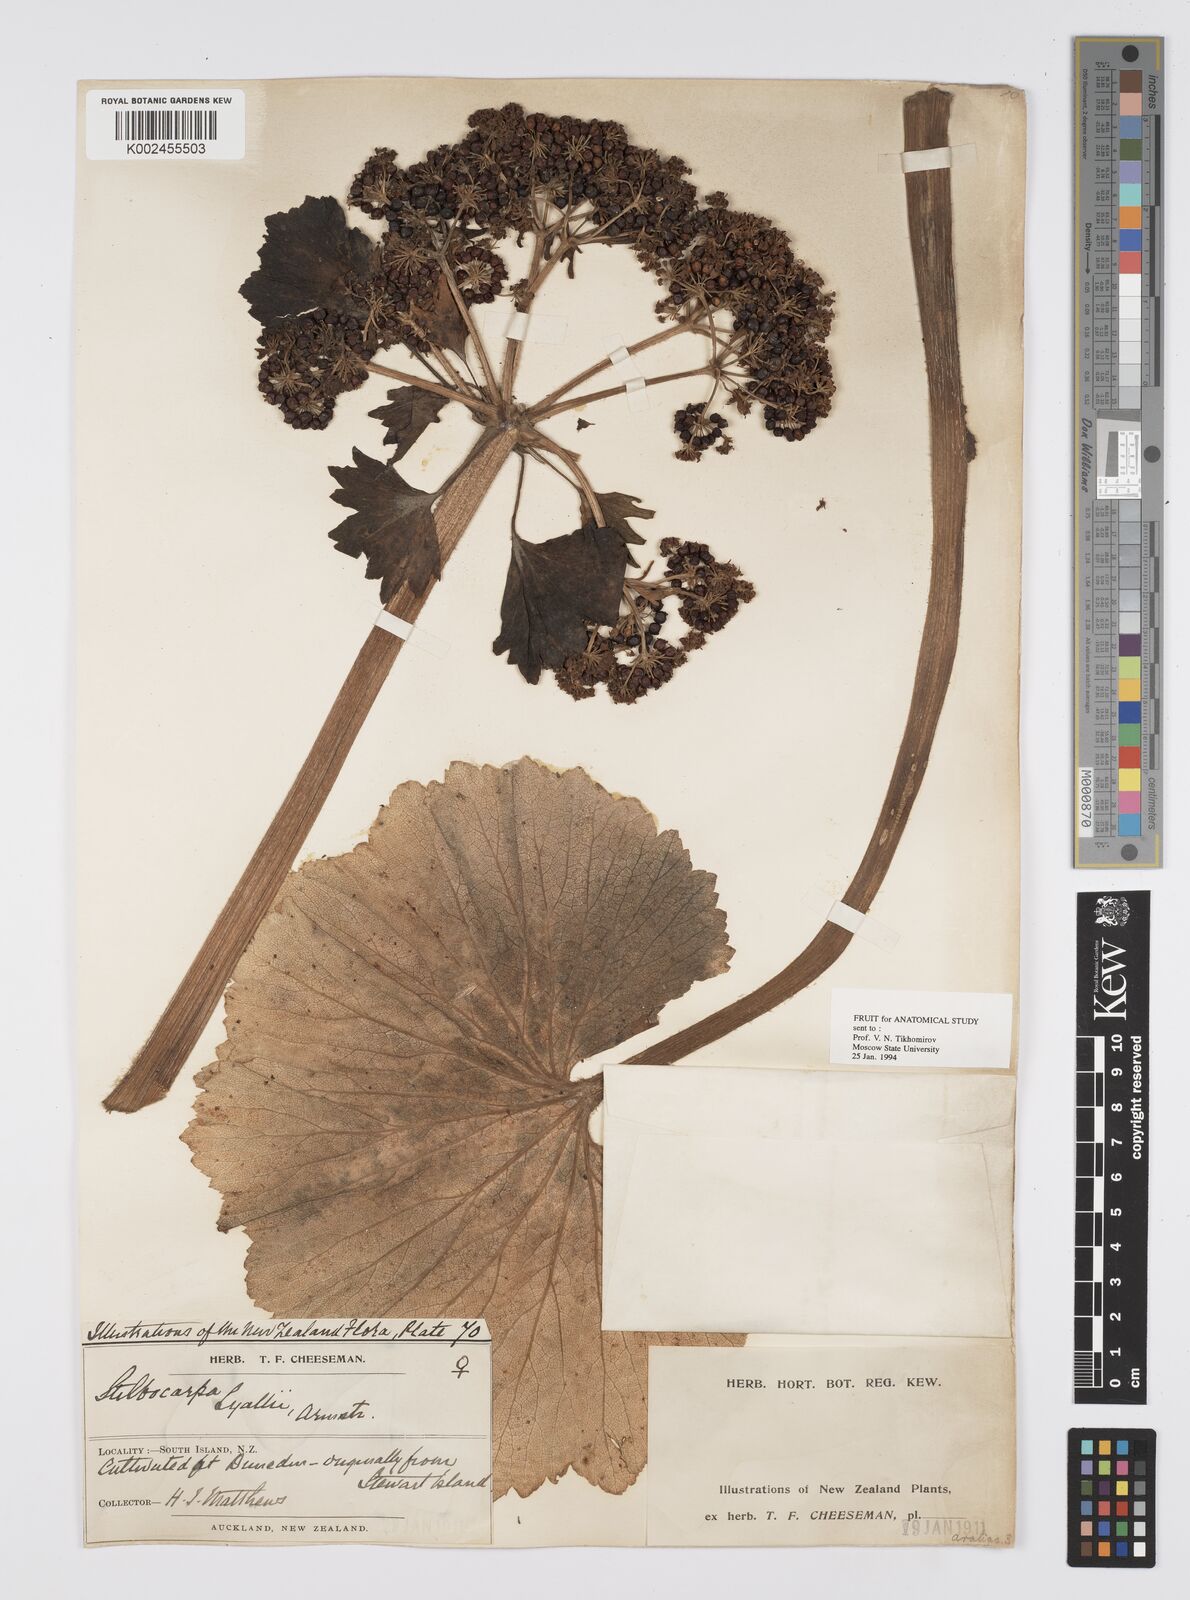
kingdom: Plantae
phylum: Tracheophyta
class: Magnoliopsida
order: Apiales
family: Apiaceae
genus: Azorella
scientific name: Azorella lyallii
